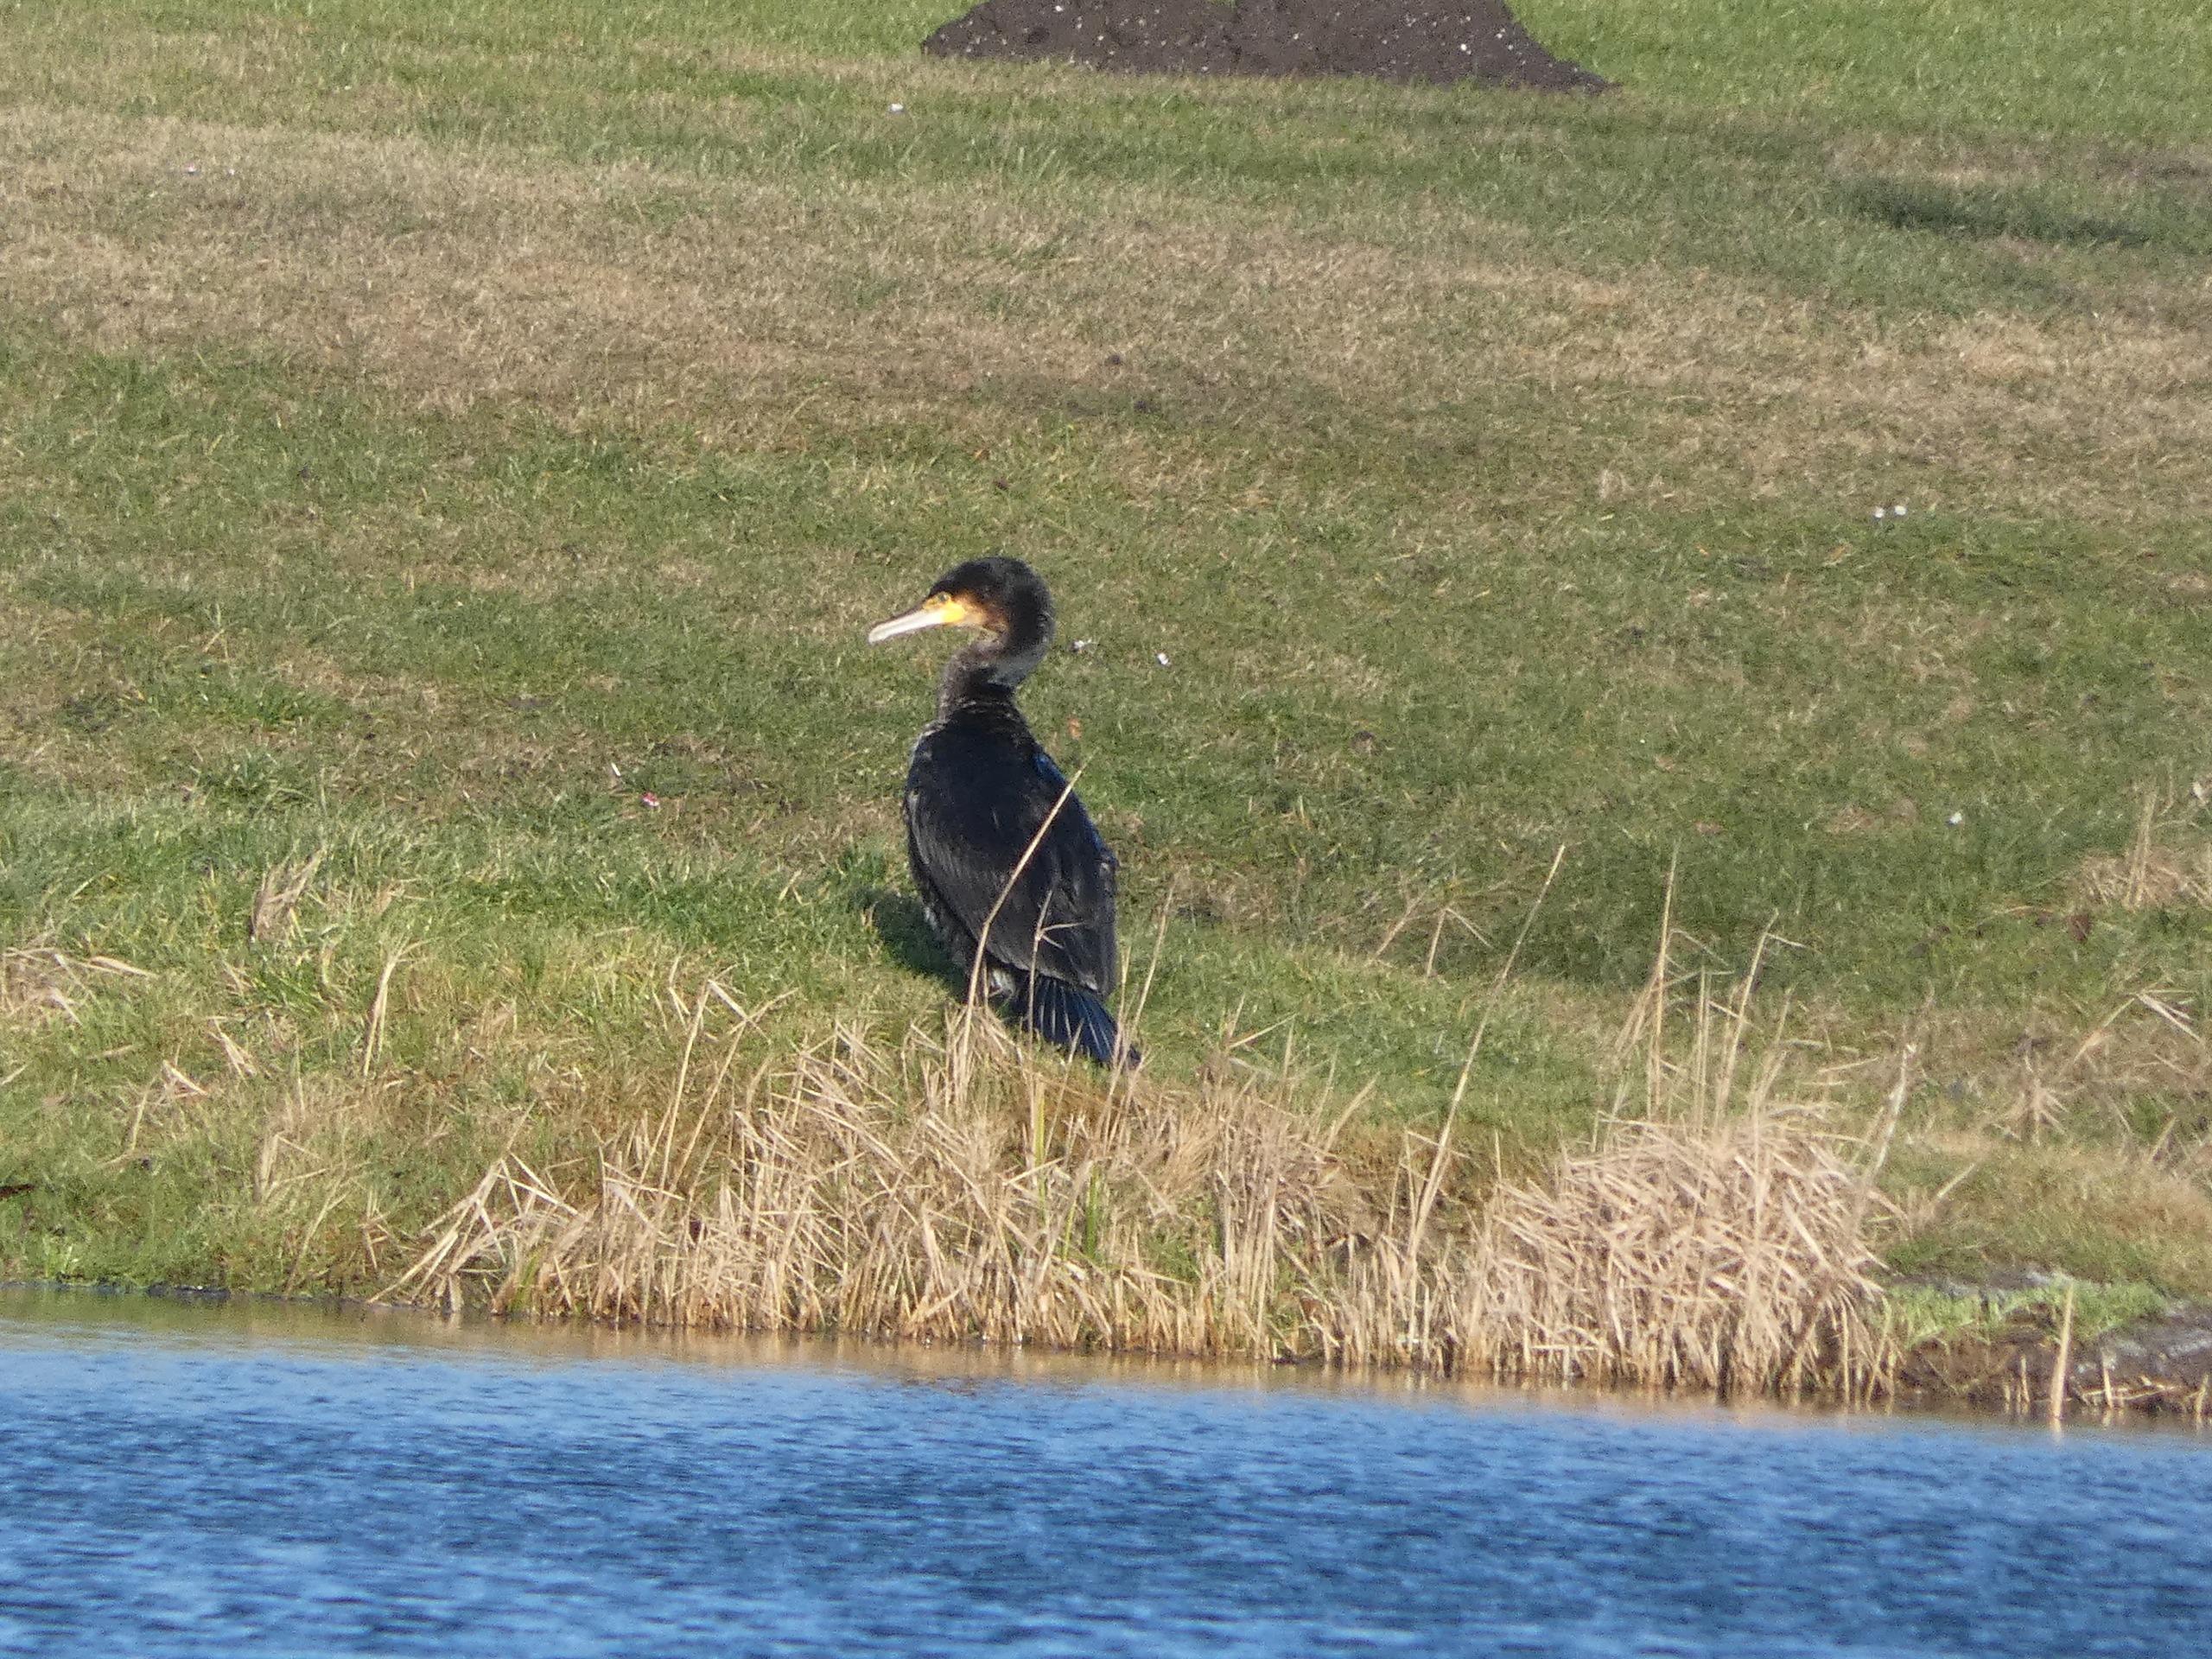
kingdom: Animalia
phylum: Chordata
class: Aves
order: Suliformes
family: Phalacrocoracidae
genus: Phalacrocorax
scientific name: Phalacrocorax carbo
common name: Skarv
